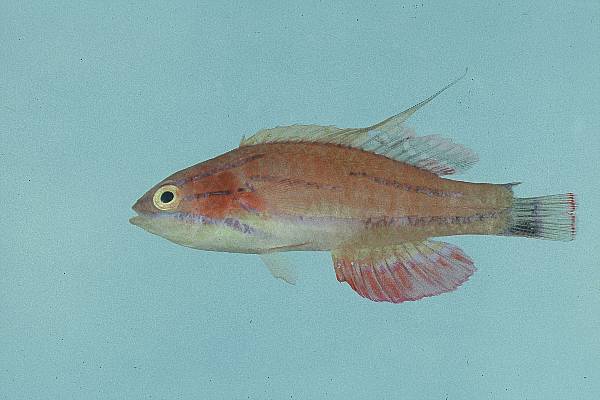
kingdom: Animalia
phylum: Chordata
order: Perciformes
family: Labridae
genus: Paracheilinus
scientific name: Paracheilinus mccoskeri
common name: Mccosker's flasher
